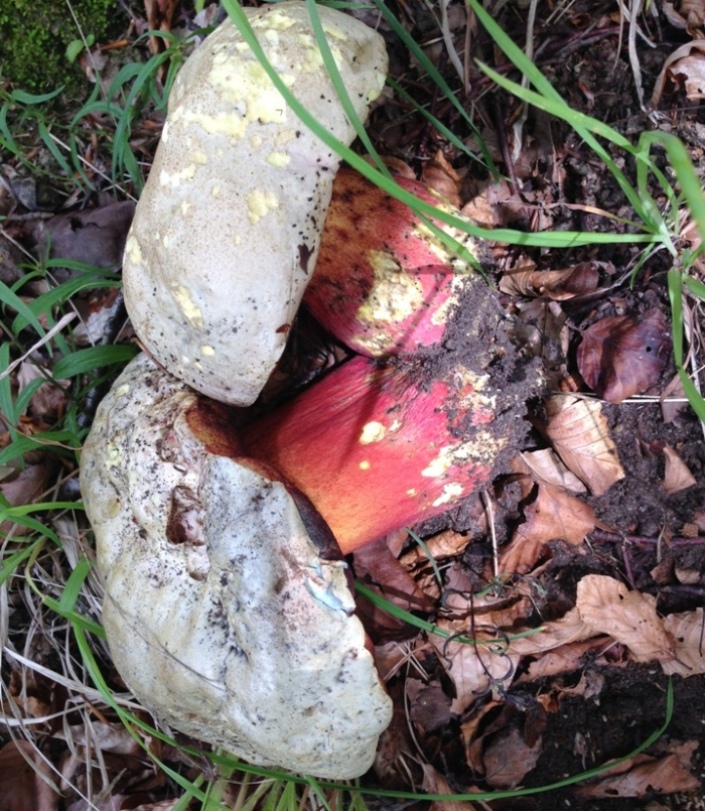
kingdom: Fungi
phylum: Basidiomycota
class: Agaricomycetes
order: Boletales
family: Boletaceae
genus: Rubroboletus
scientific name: Rubroboletus satanas
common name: Satans rørhat
